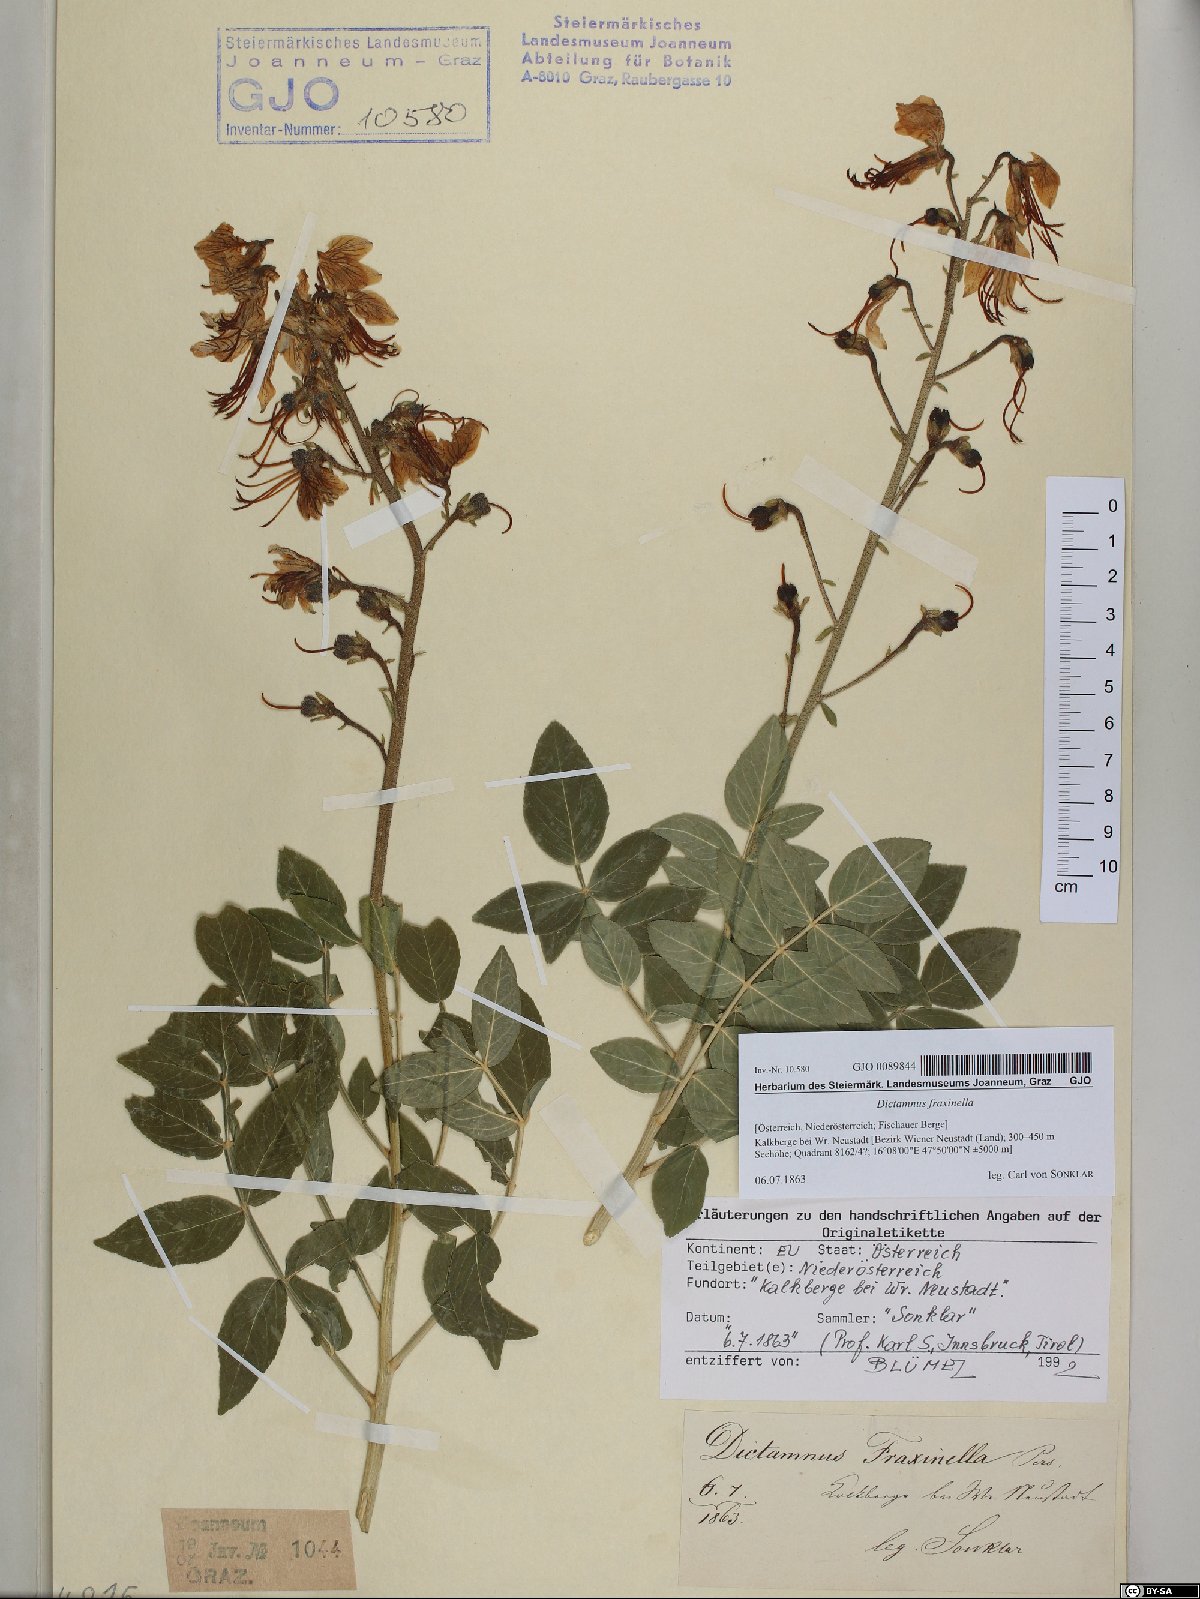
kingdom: Plantae
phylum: Tracheophyta
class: Magnoliopsida
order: Sapindales
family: Rutaceae
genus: Dictamnus
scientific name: Dictamnus albus
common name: Gasplant
